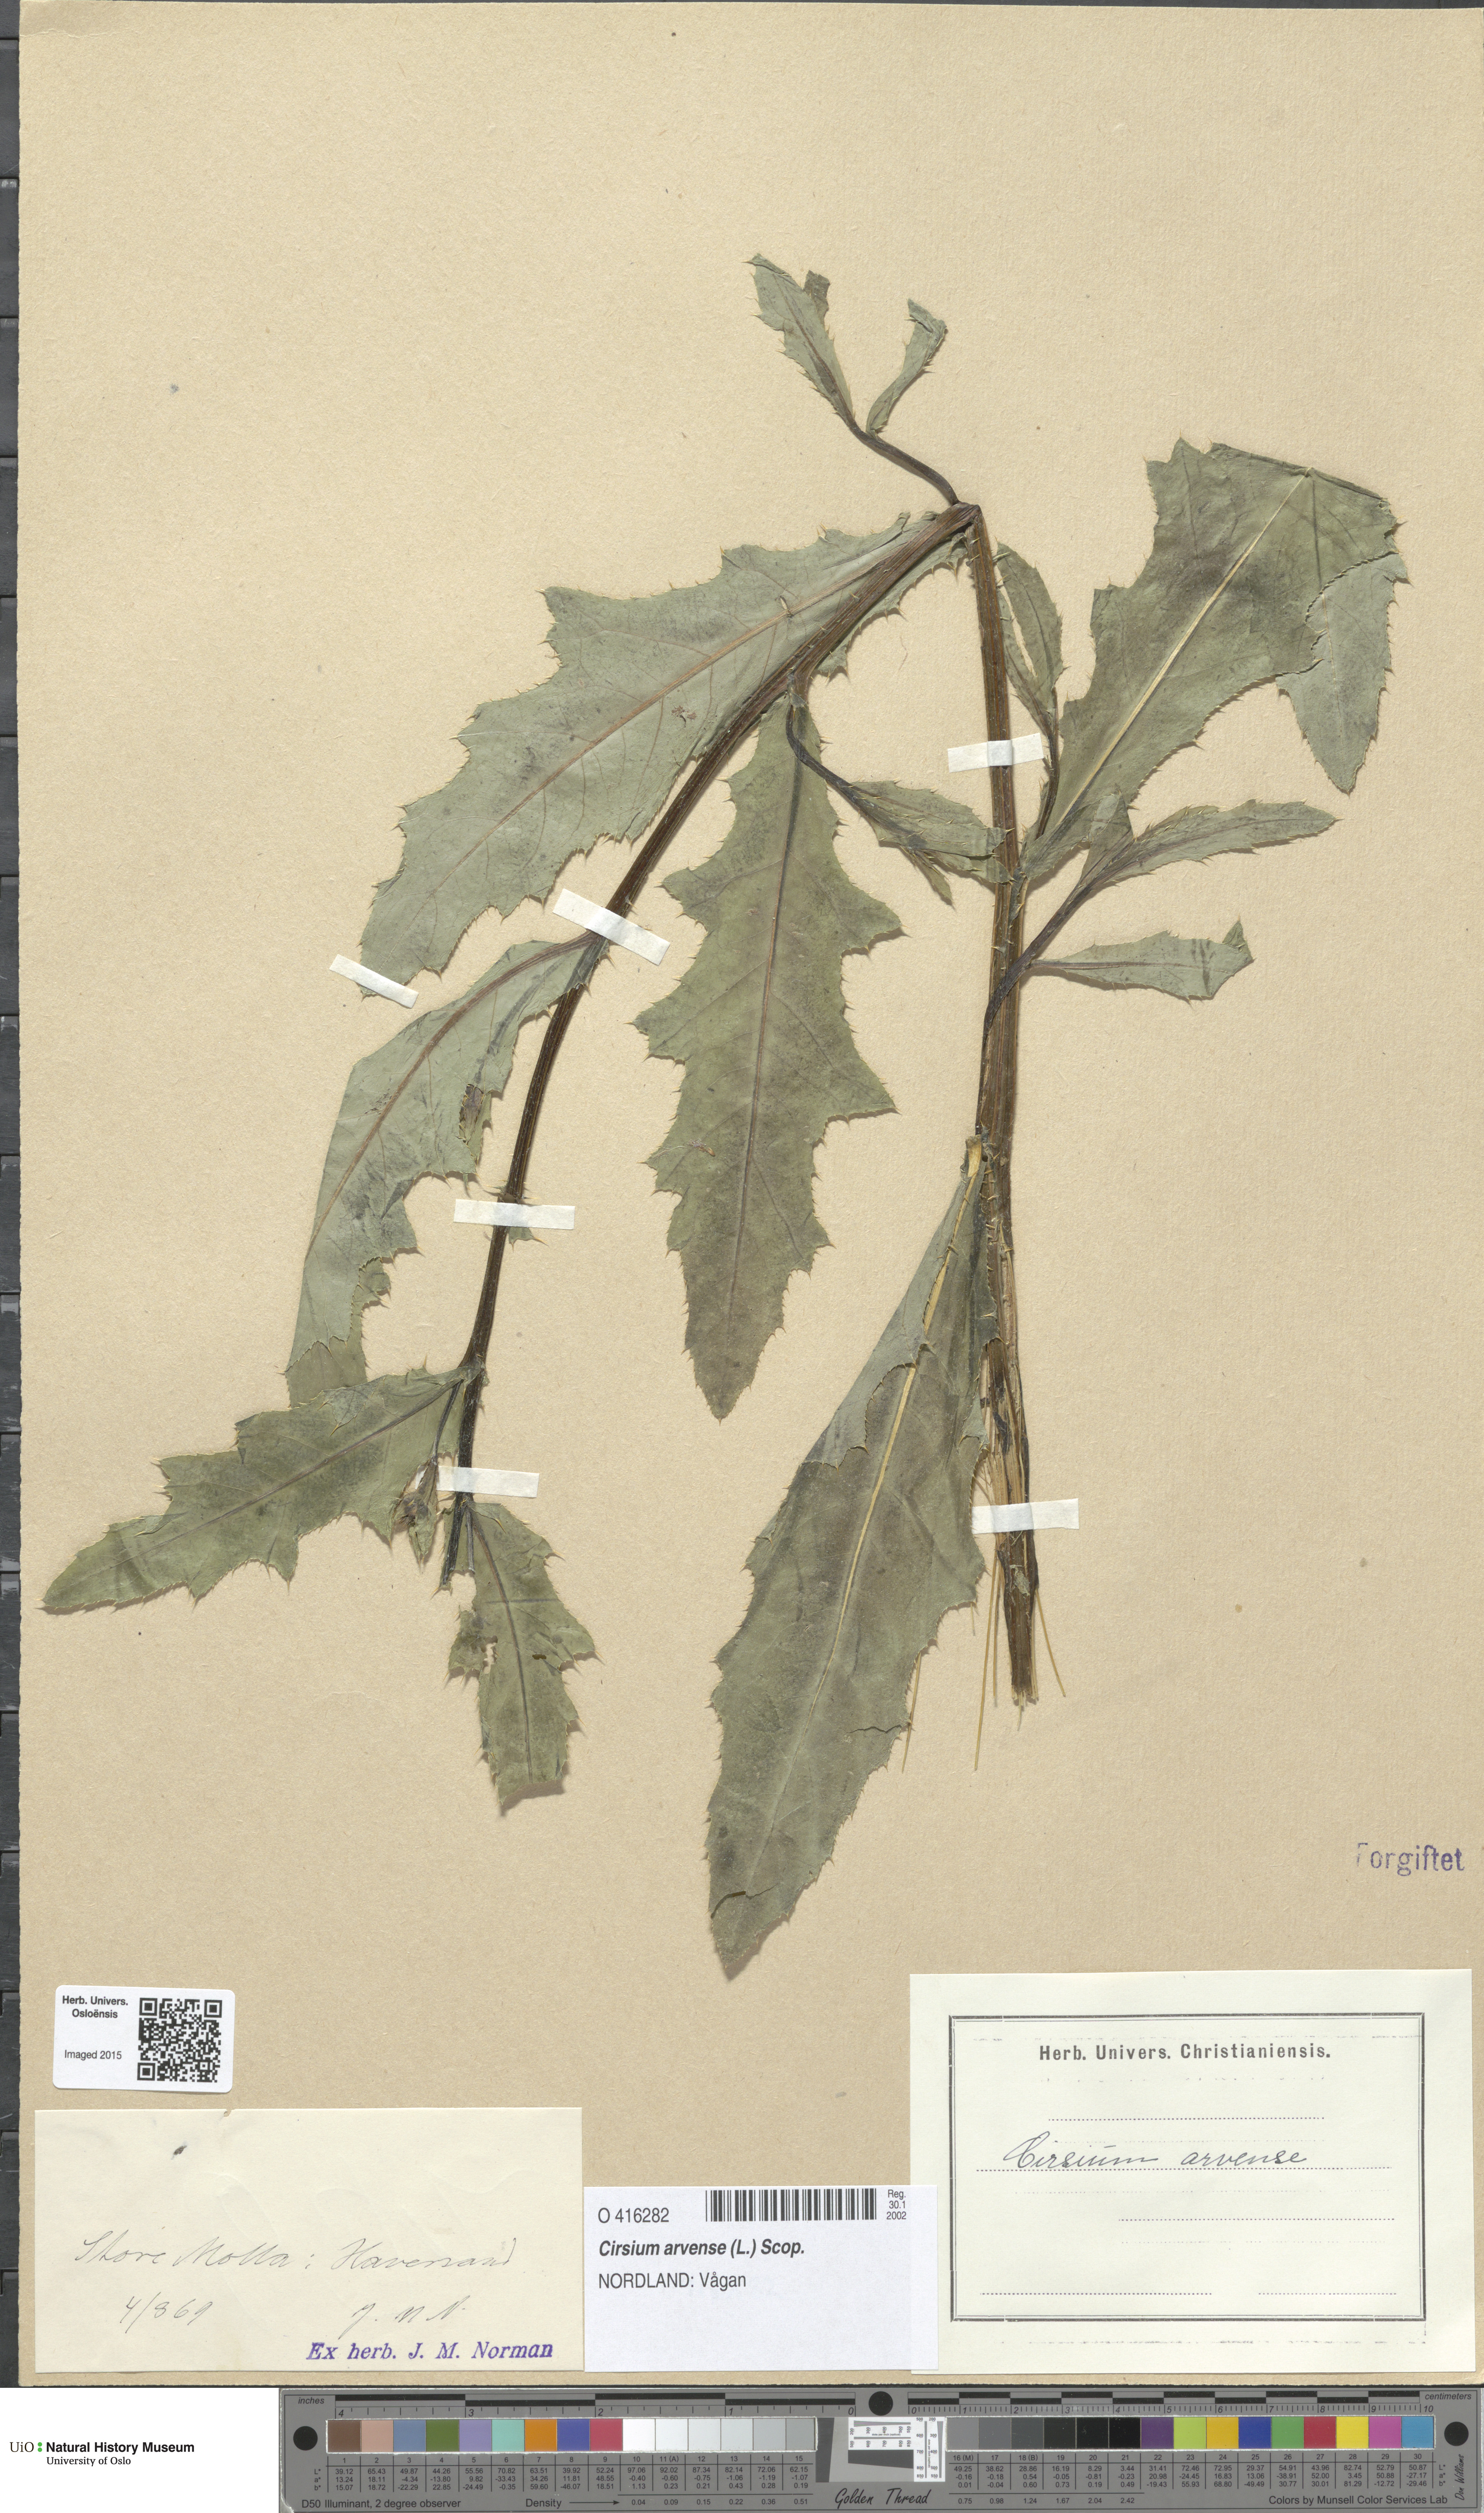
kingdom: Plantae
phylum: Tracheophyta
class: Magnoliopsida
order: Asterales
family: Asteraceae
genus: Cirsium
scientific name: Cirsium arvense
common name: Creeping thistle
